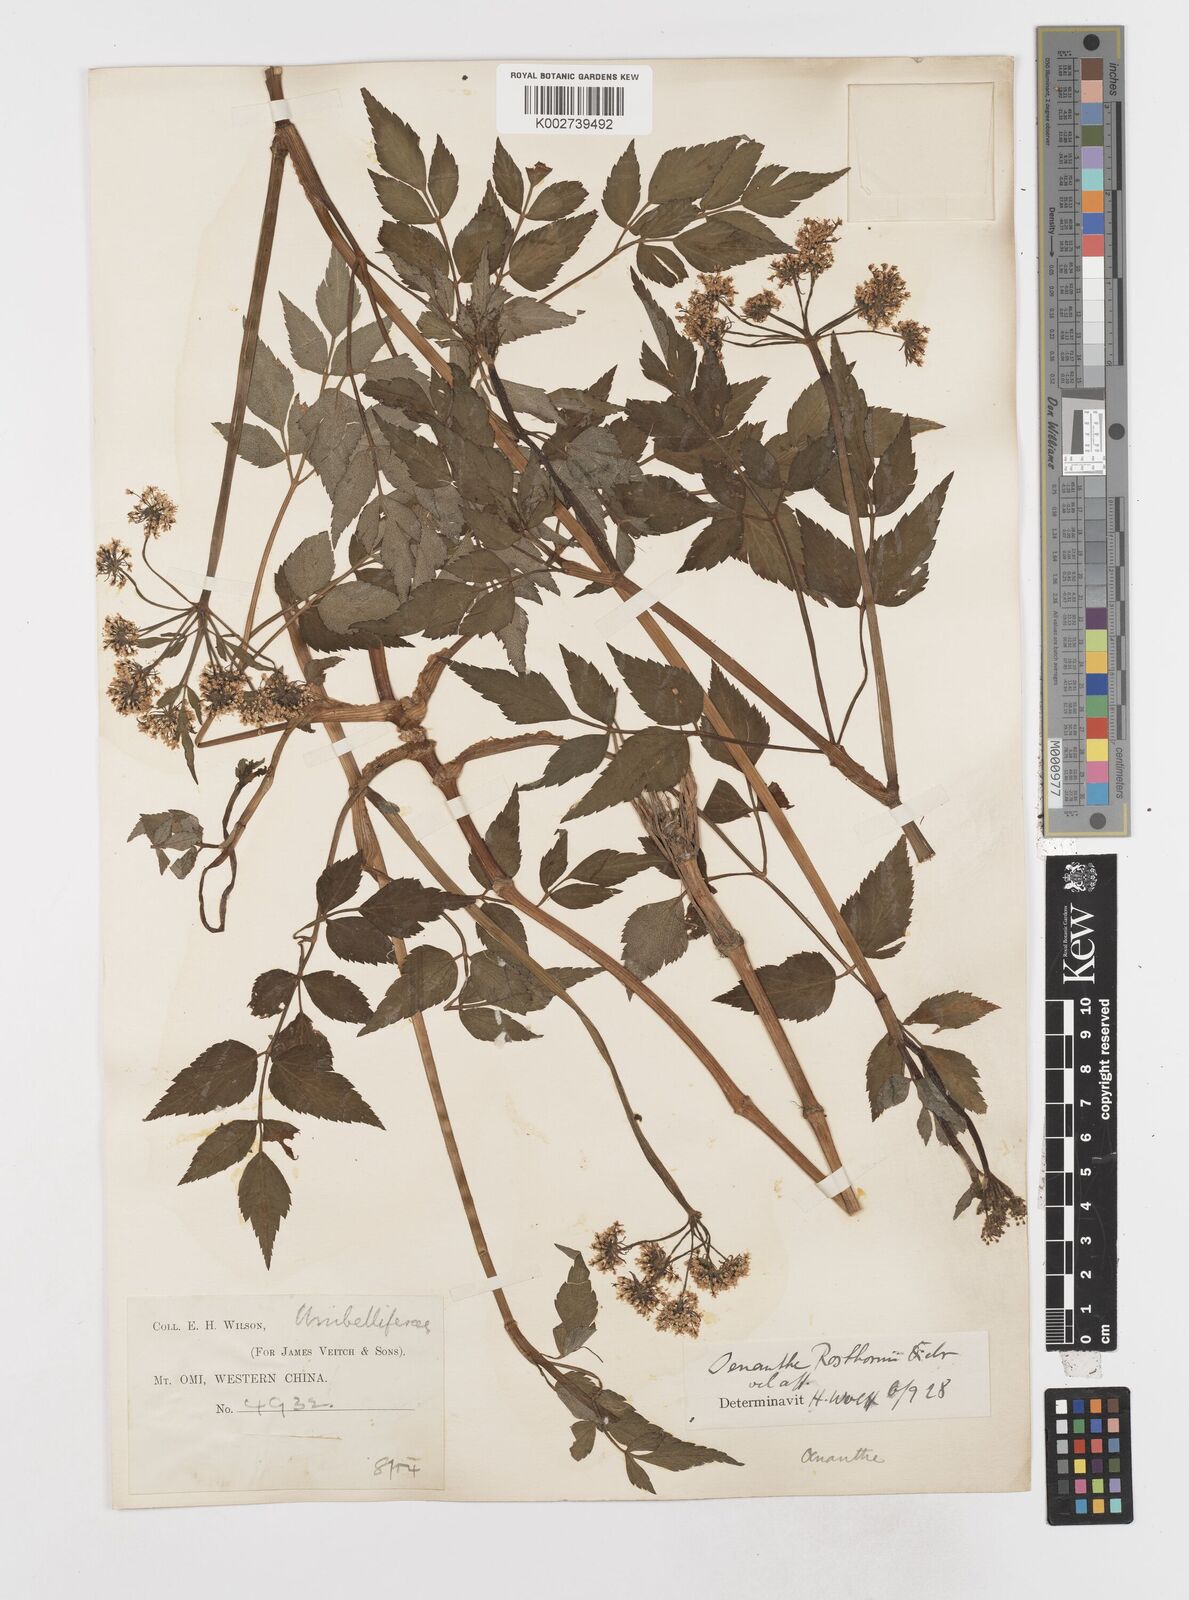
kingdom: Plantae
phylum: Tracheophyta
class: Magnoliopsida
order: Apiales
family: Apiaceae
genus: Oenanthe
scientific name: Oenanthe javanica
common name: Java water-dropwort
